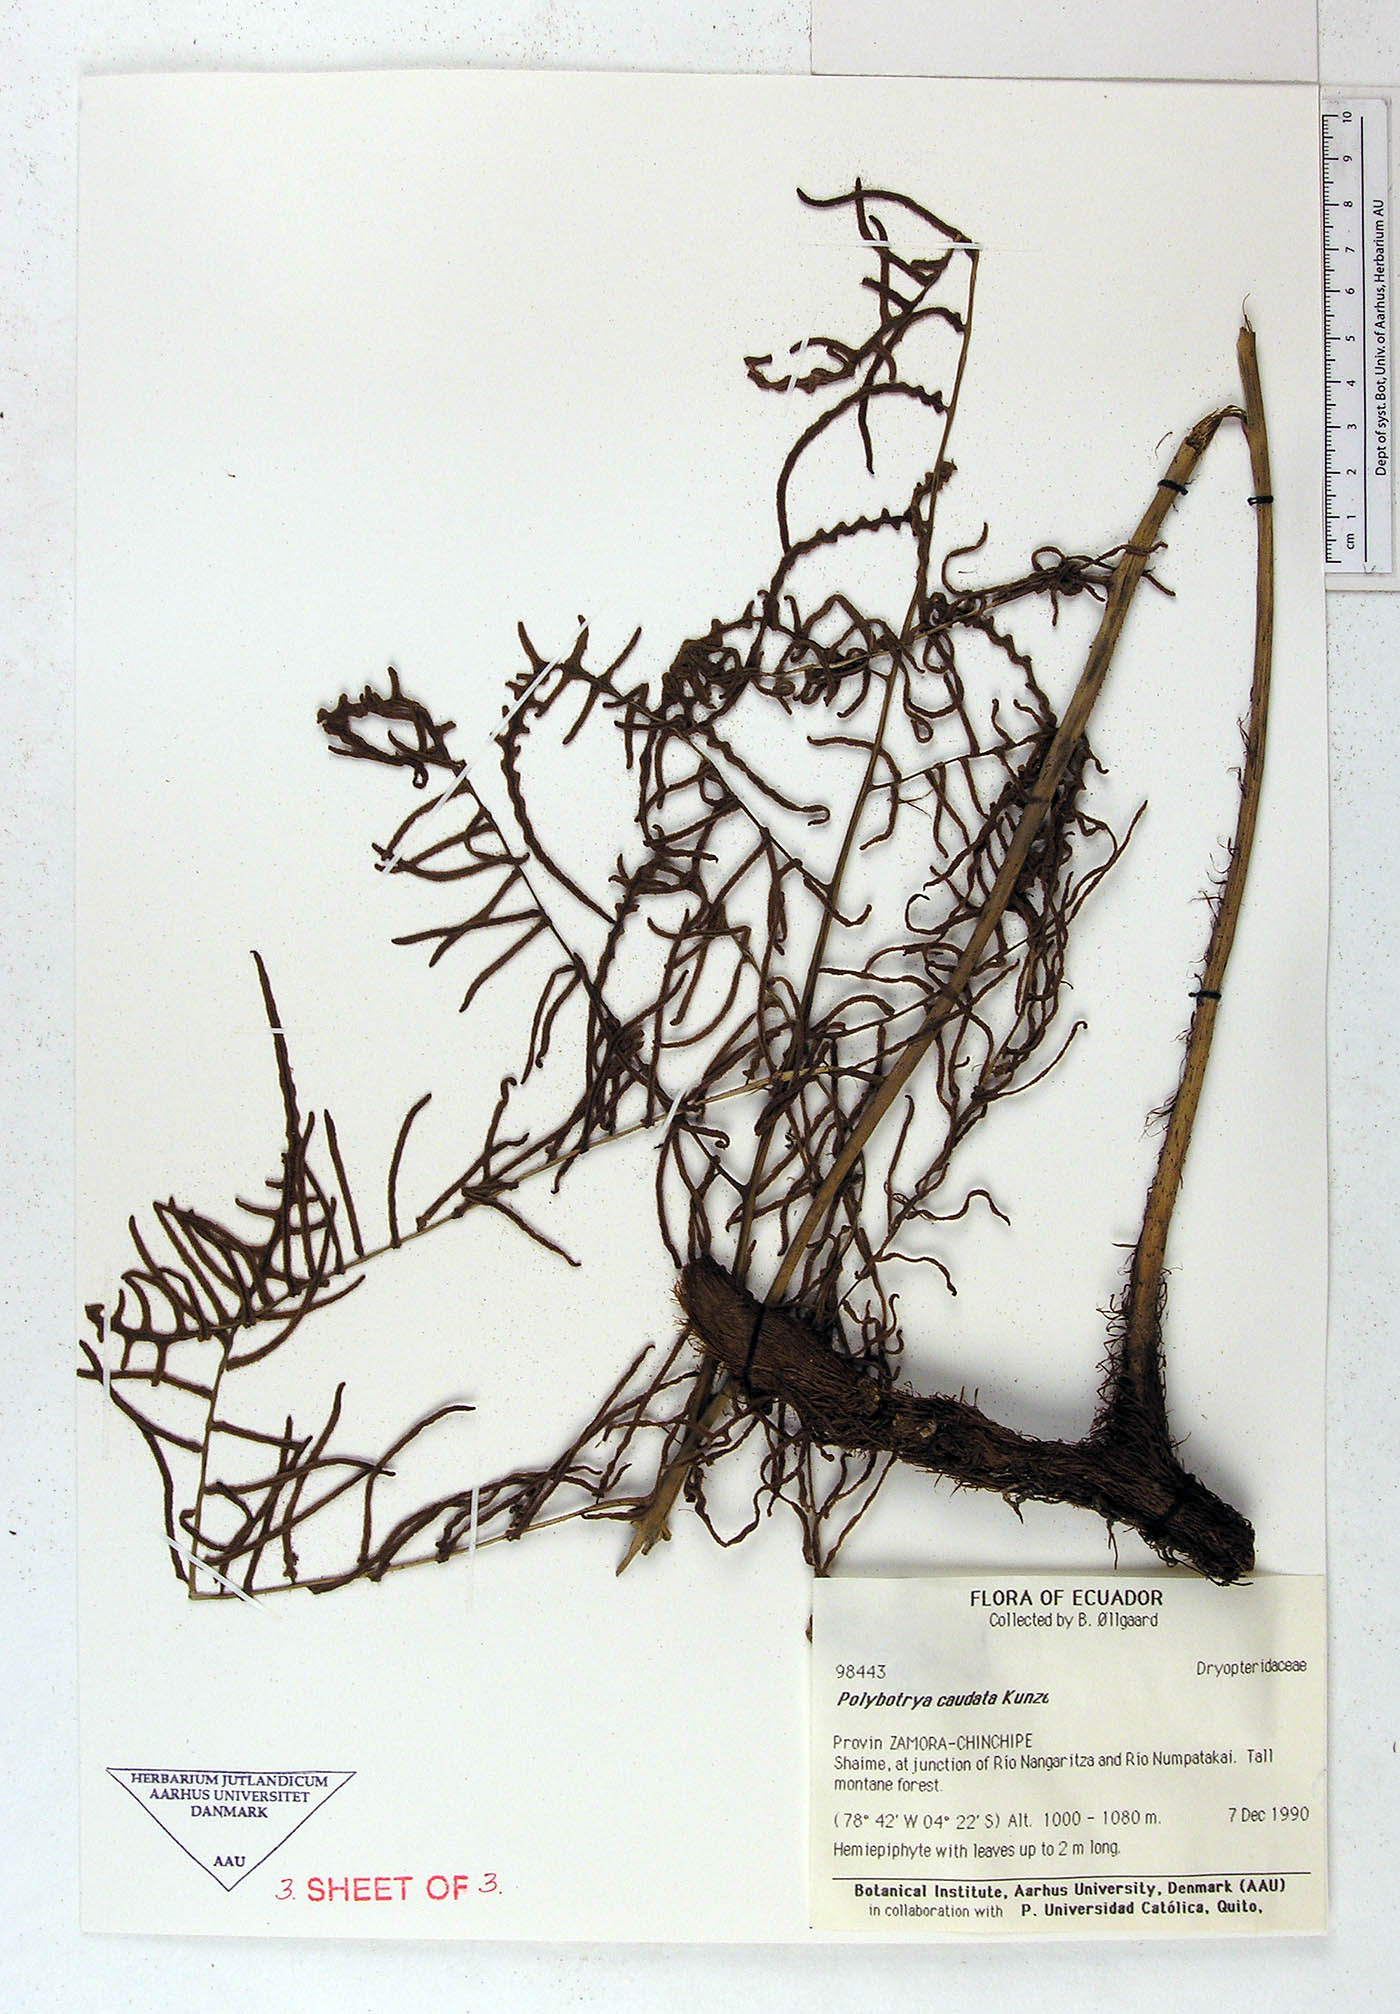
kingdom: Plantae
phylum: Tracheophyta
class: Polypodiopsida
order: Polypodiales
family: Dryopteridaceae
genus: Polybotrya
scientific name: Polybotrya caudata
